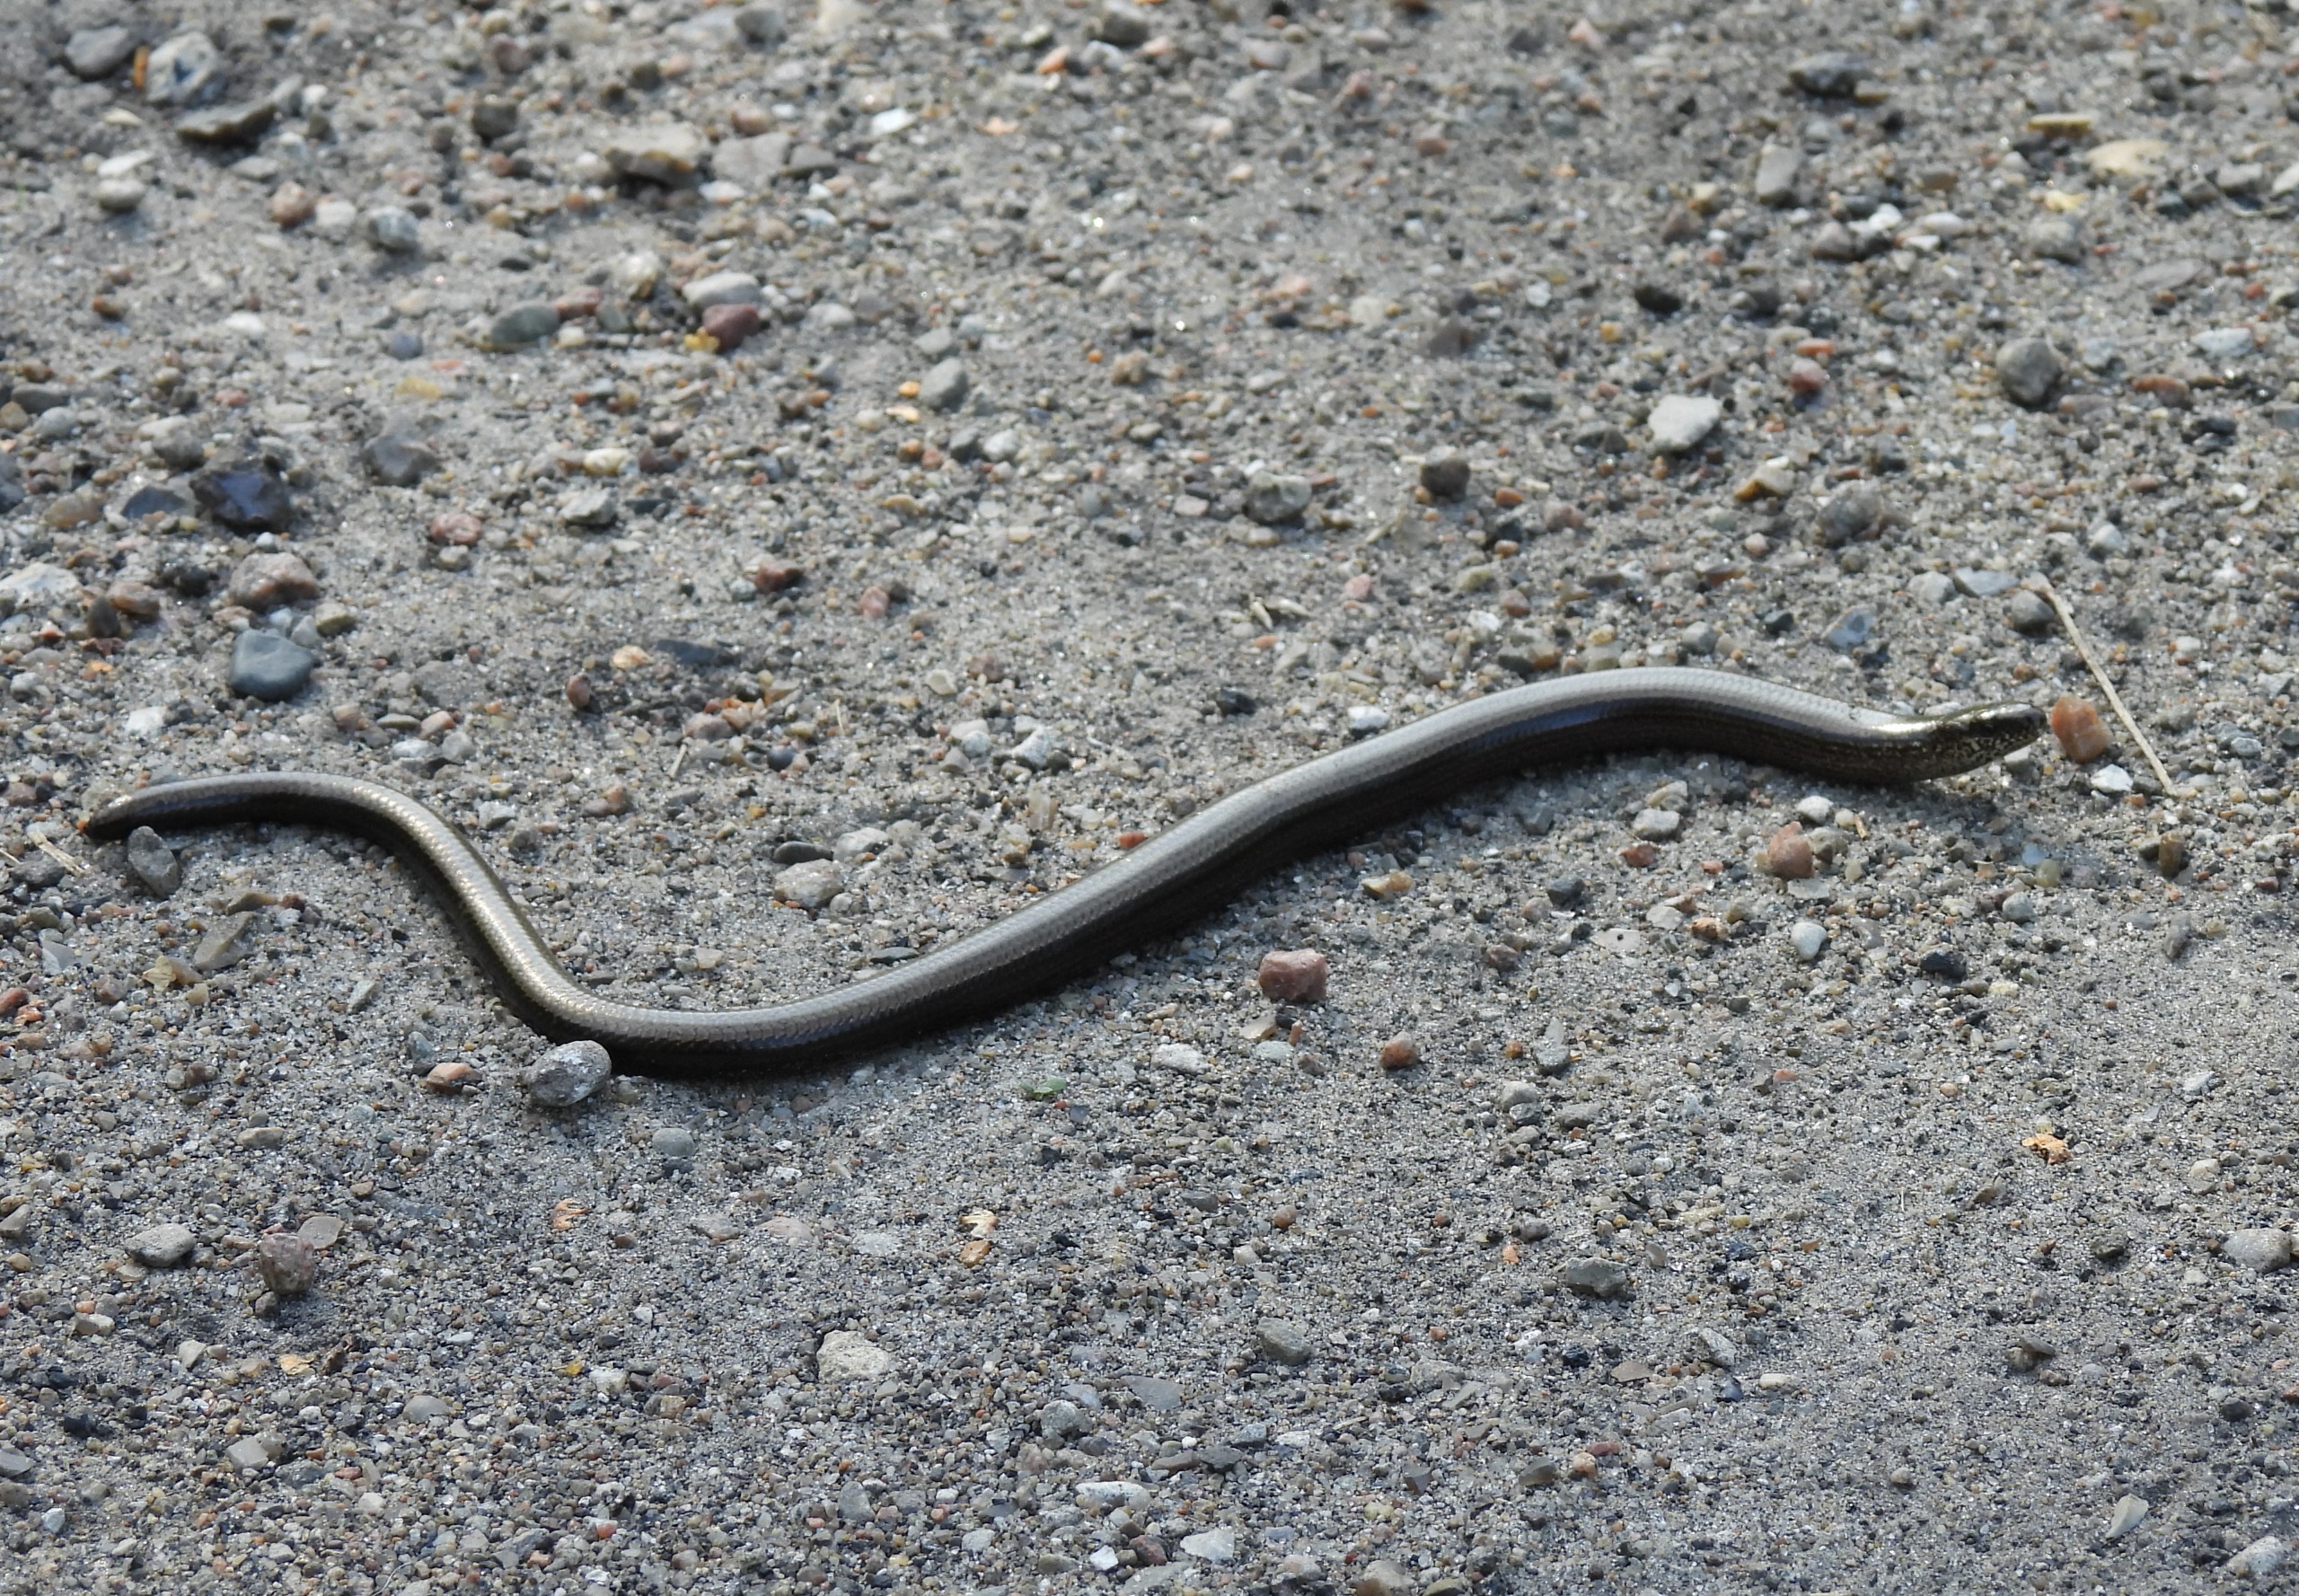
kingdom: Animalia
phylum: Chordata
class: Squamata
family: Anguidae
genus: Anguis
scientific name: Anguis fragilis
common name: Stålorm
